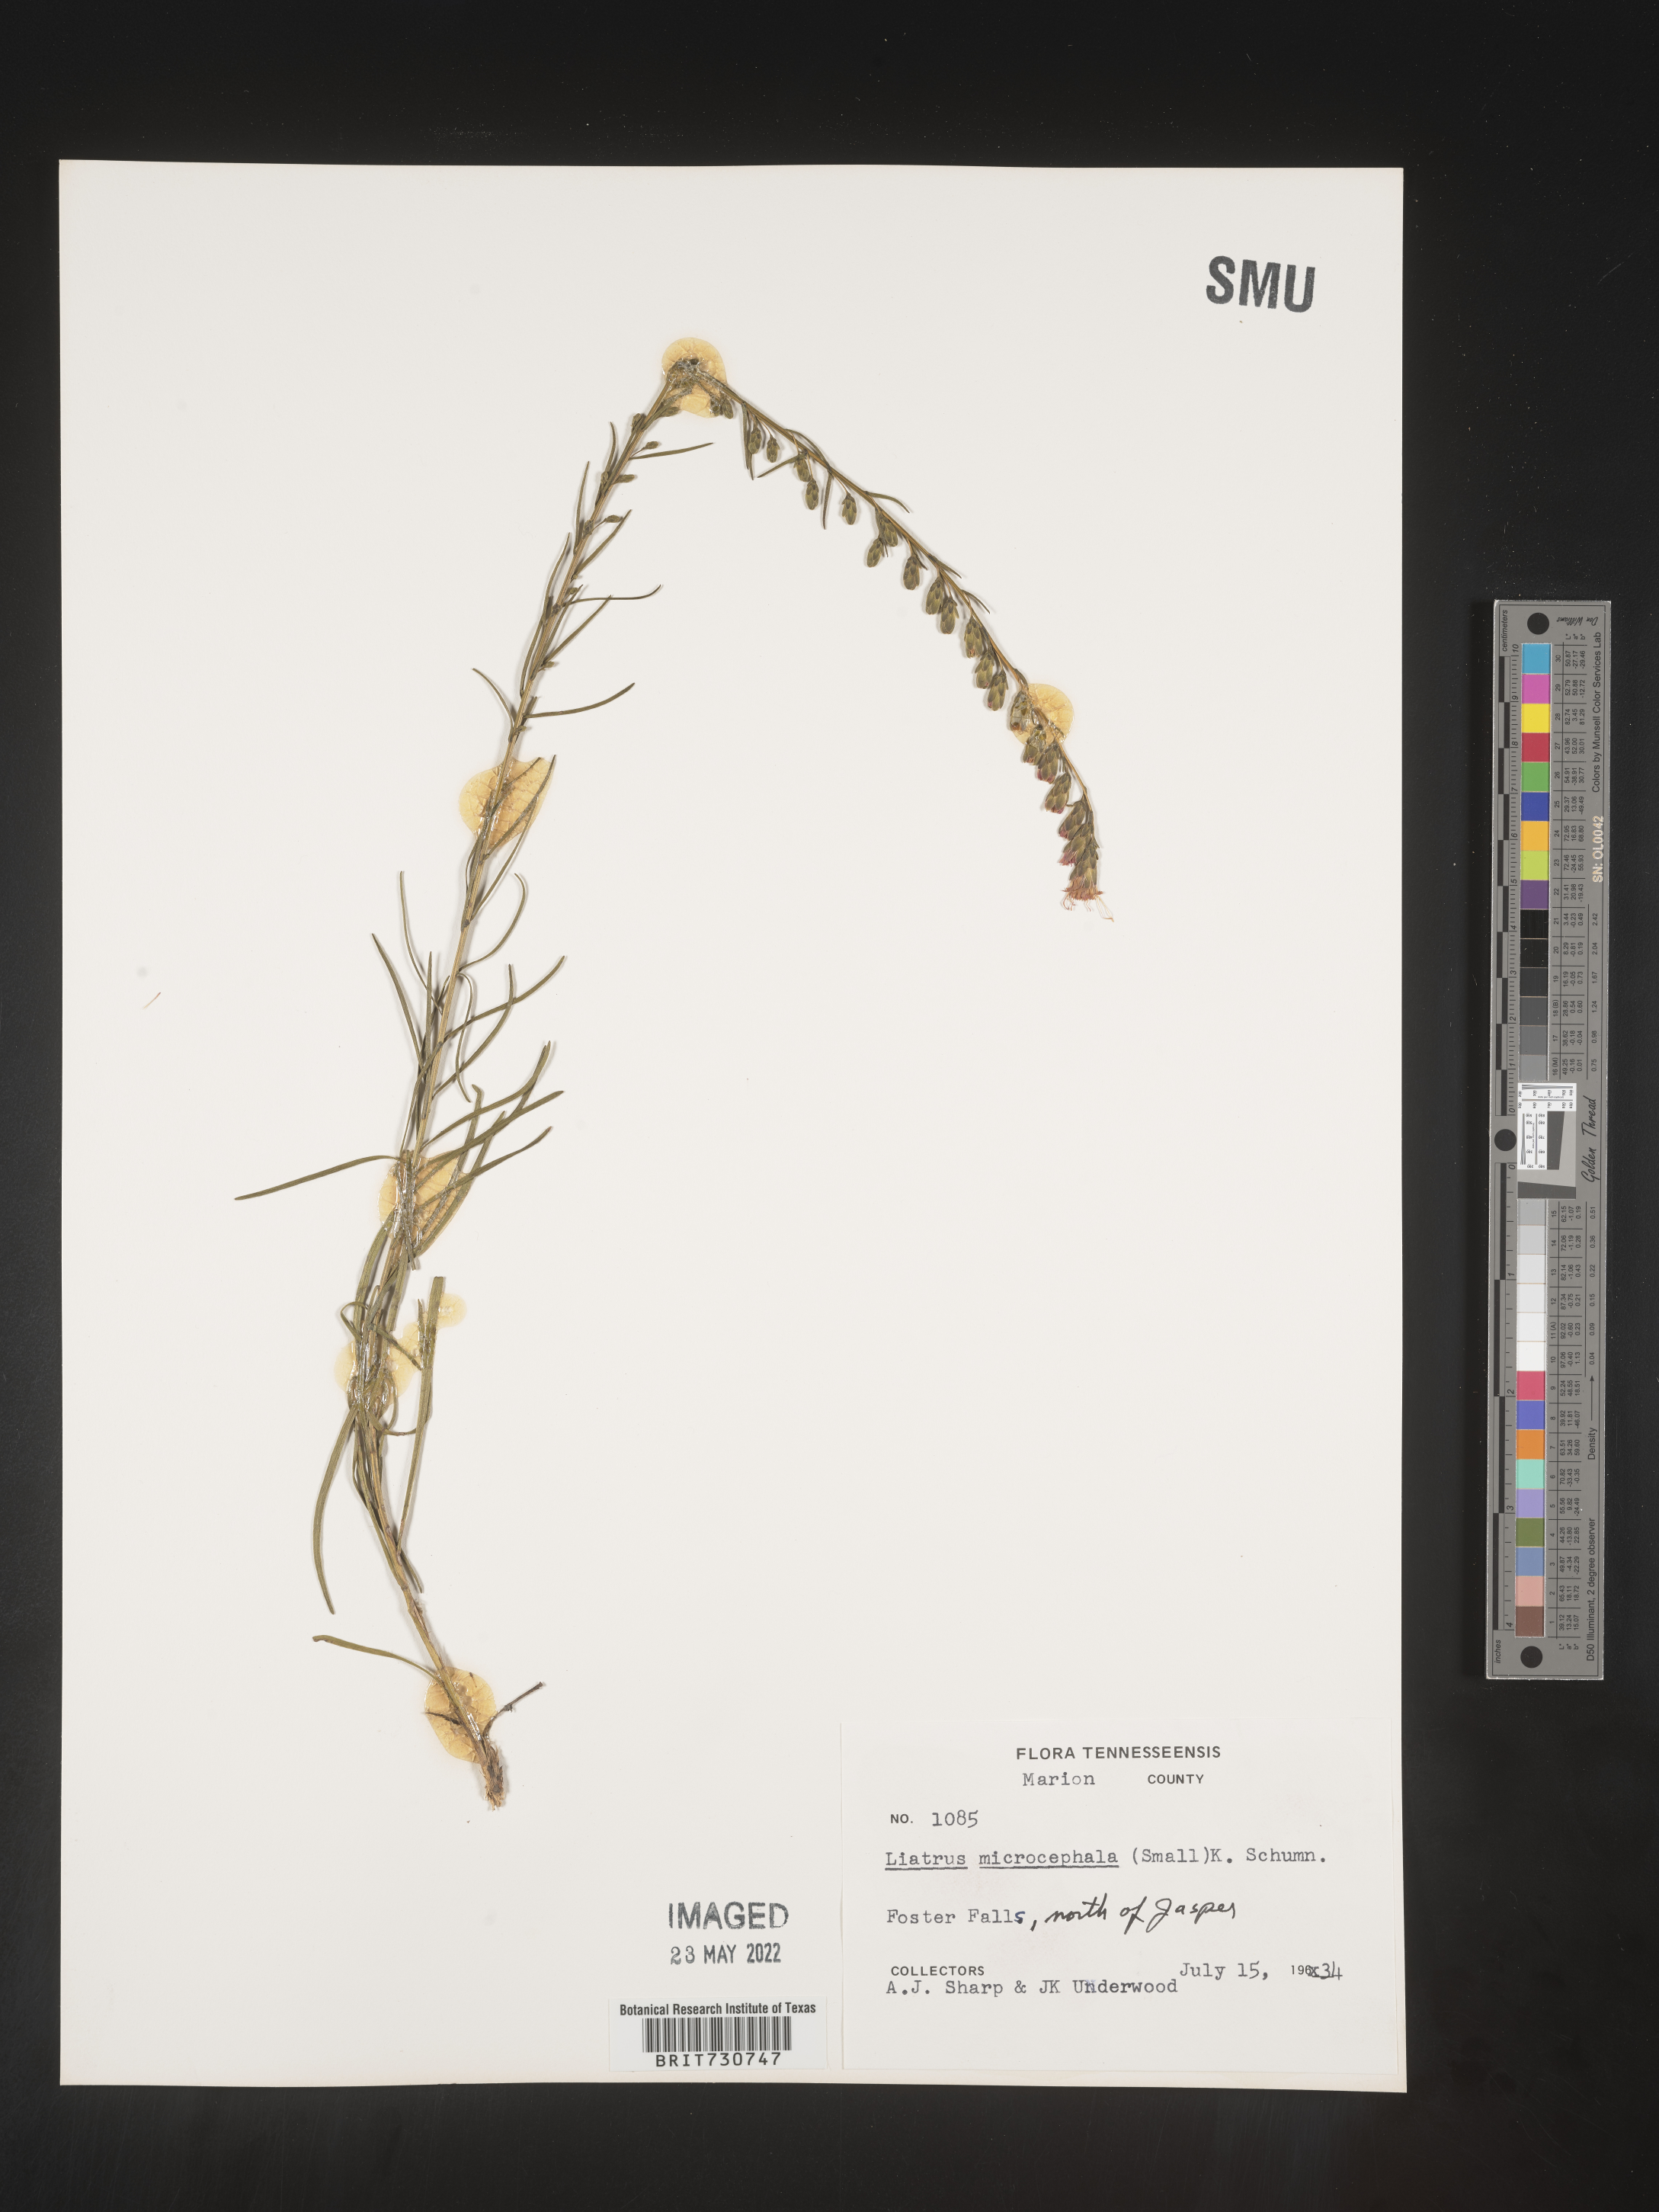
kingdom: Plantae
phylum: Tracheophyta
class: Magnoliopsida
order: Asterales
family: Asteraceae
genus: Liatris
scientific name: Liatris microcephala
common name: Small-head gayfeather
